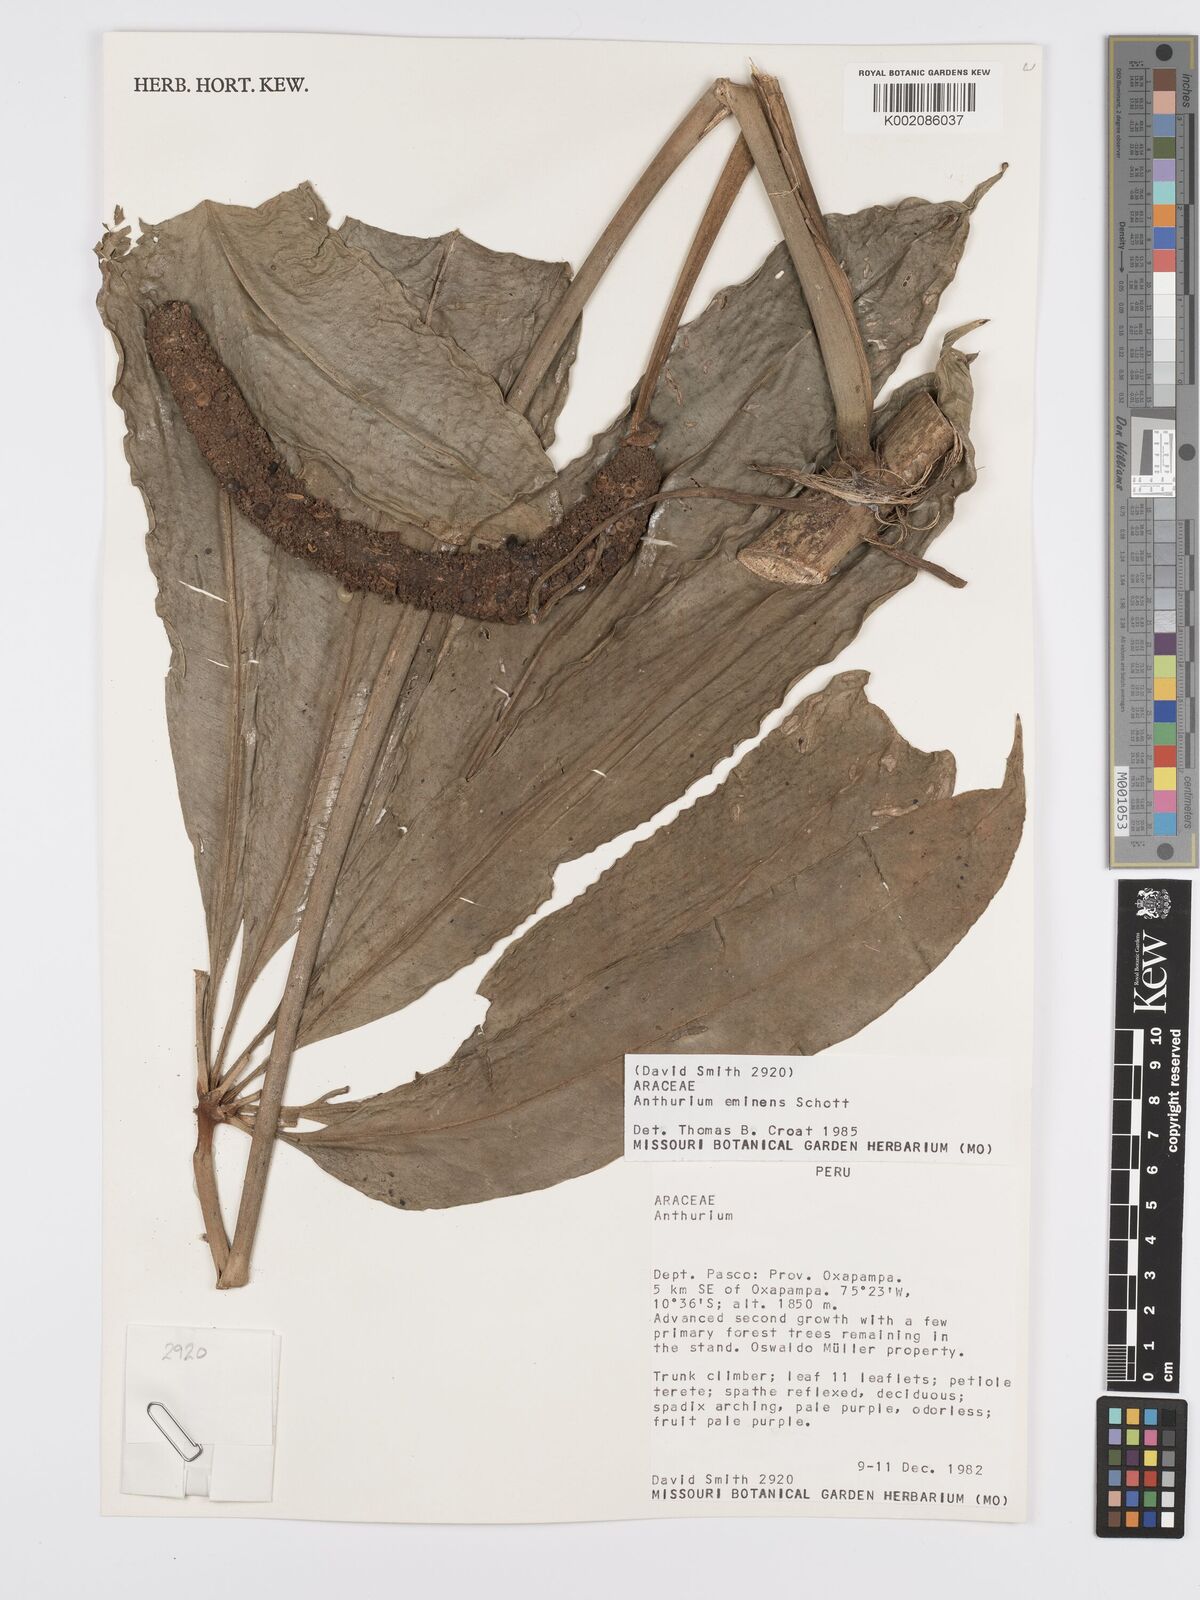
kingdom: Plantae
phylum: Tracheophyta
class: Liliopsida
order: Alismatales
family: Araceae
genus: Anthurium
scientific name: Anthurium eminens
